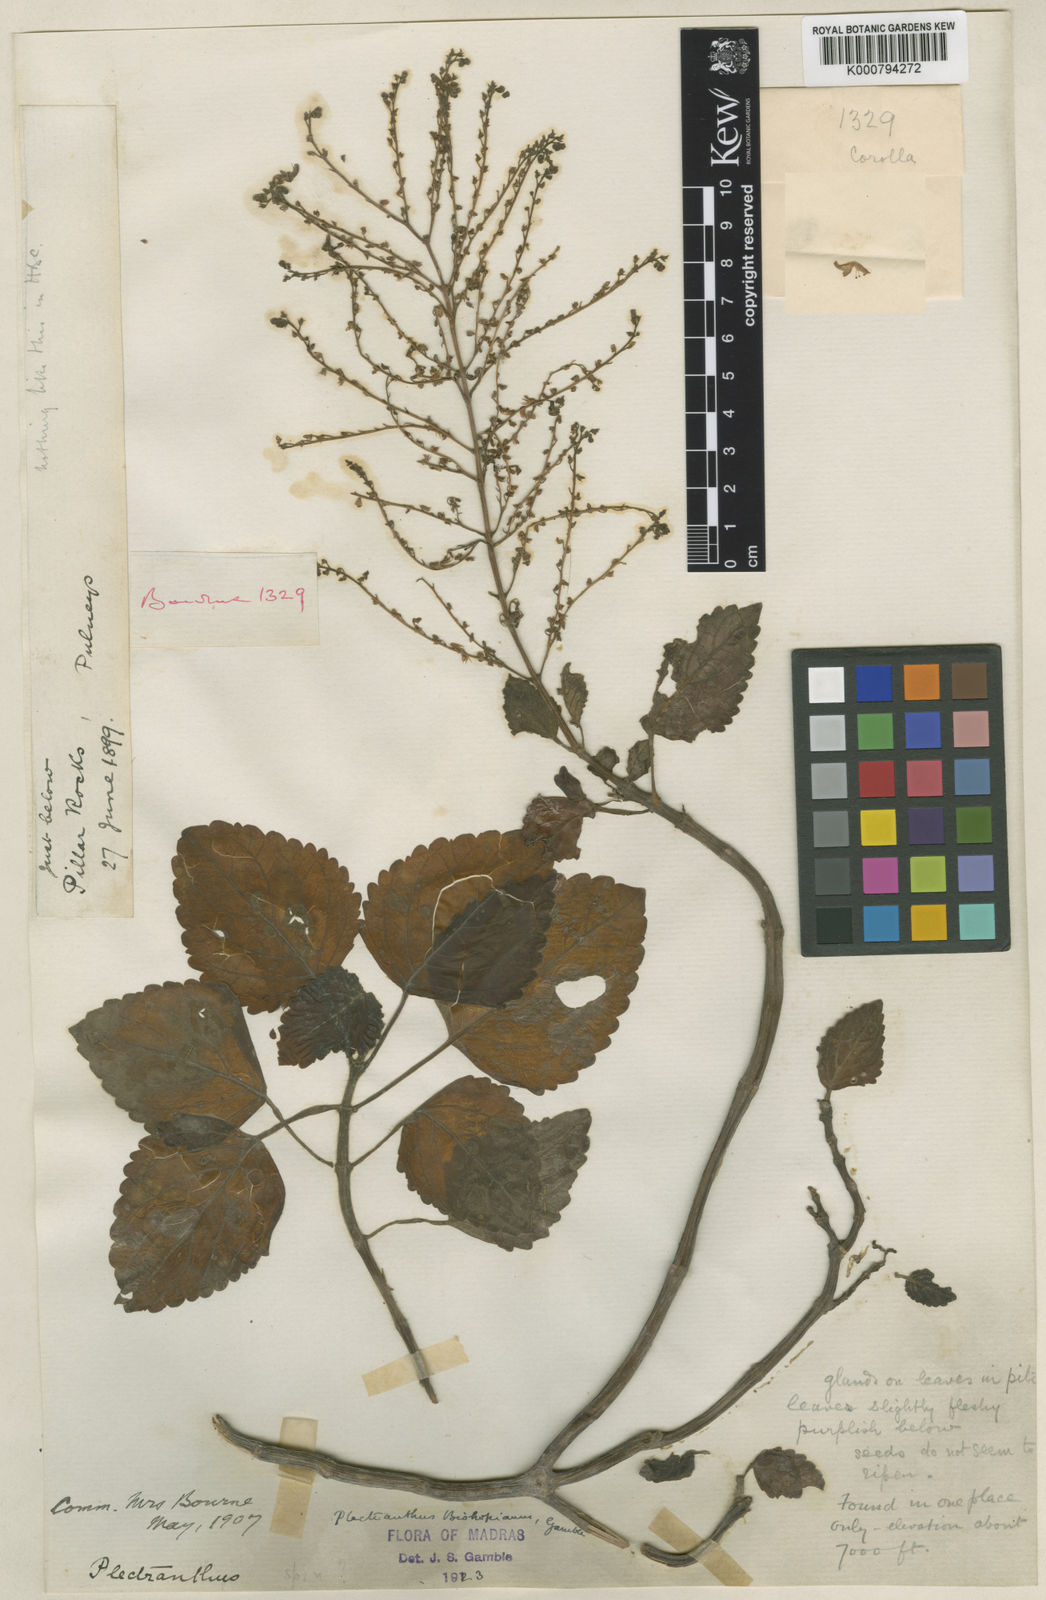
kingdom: Plantae
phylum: Tracheophyta
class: Magnoliopsida
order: Lamiales
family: Lamiaceae
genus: Coleus
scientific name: Coleus fruticosus
